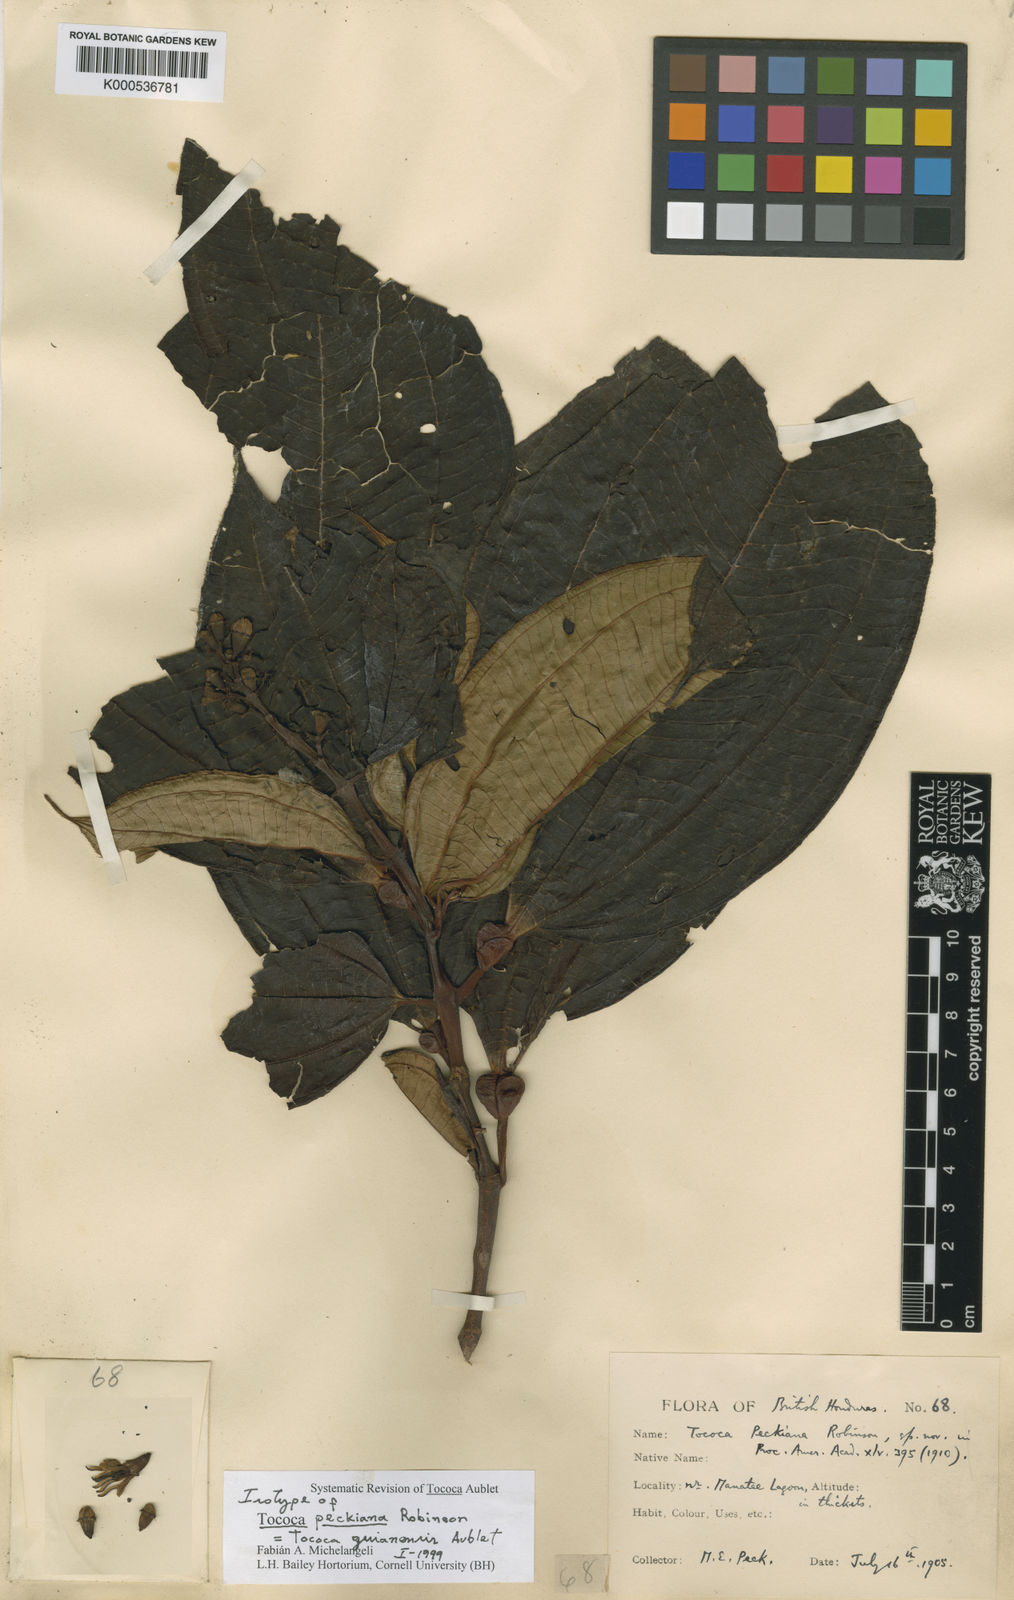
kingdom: Plantae
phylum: Tracheophyta
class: Magnoliopsida
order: Myrtales
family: Melastomataceae
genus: Miconia
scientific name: Miconia tococa
